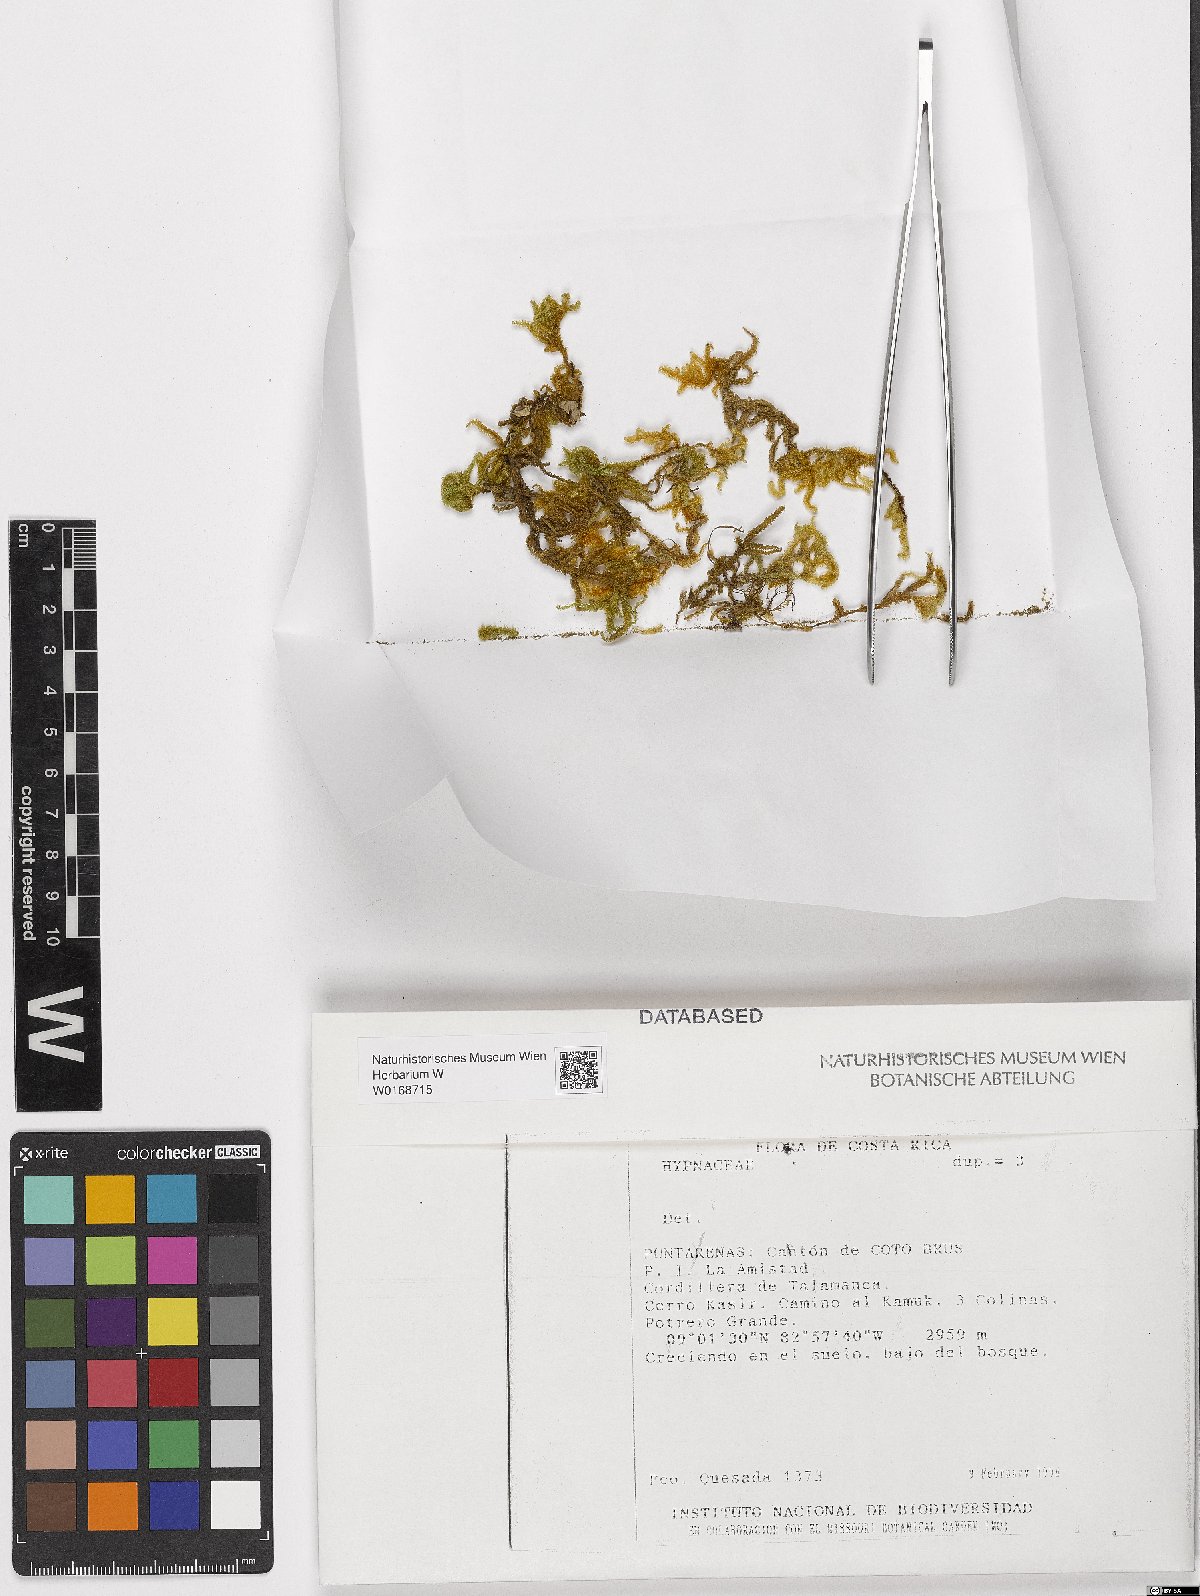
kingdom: Plantae
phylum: Bryophyta
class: Bryopsida
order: Hypnales
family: Hypnaceae
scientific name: Hypnaceae
